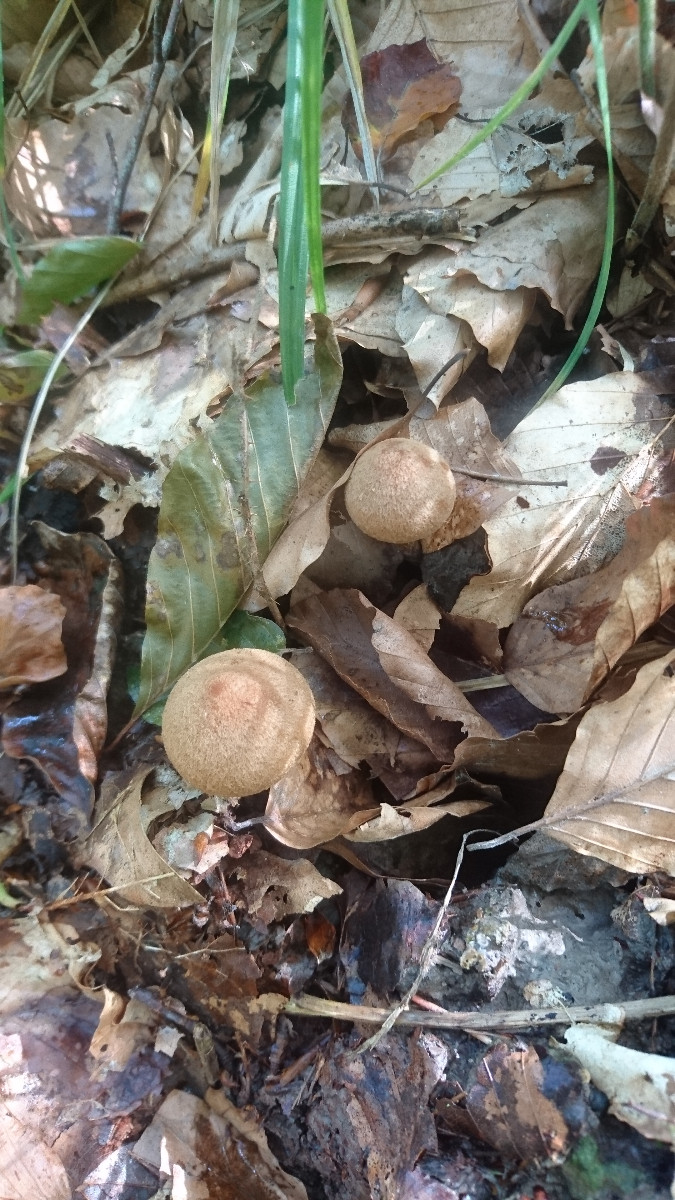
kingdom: Fungi
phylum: Basidiomycota
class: Agaricomycetes
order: Agaricales
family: Psathyrellaceae
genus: Lacrymaria
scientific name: Lacrymaria lacrymabunda
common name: grædende mørkhat
